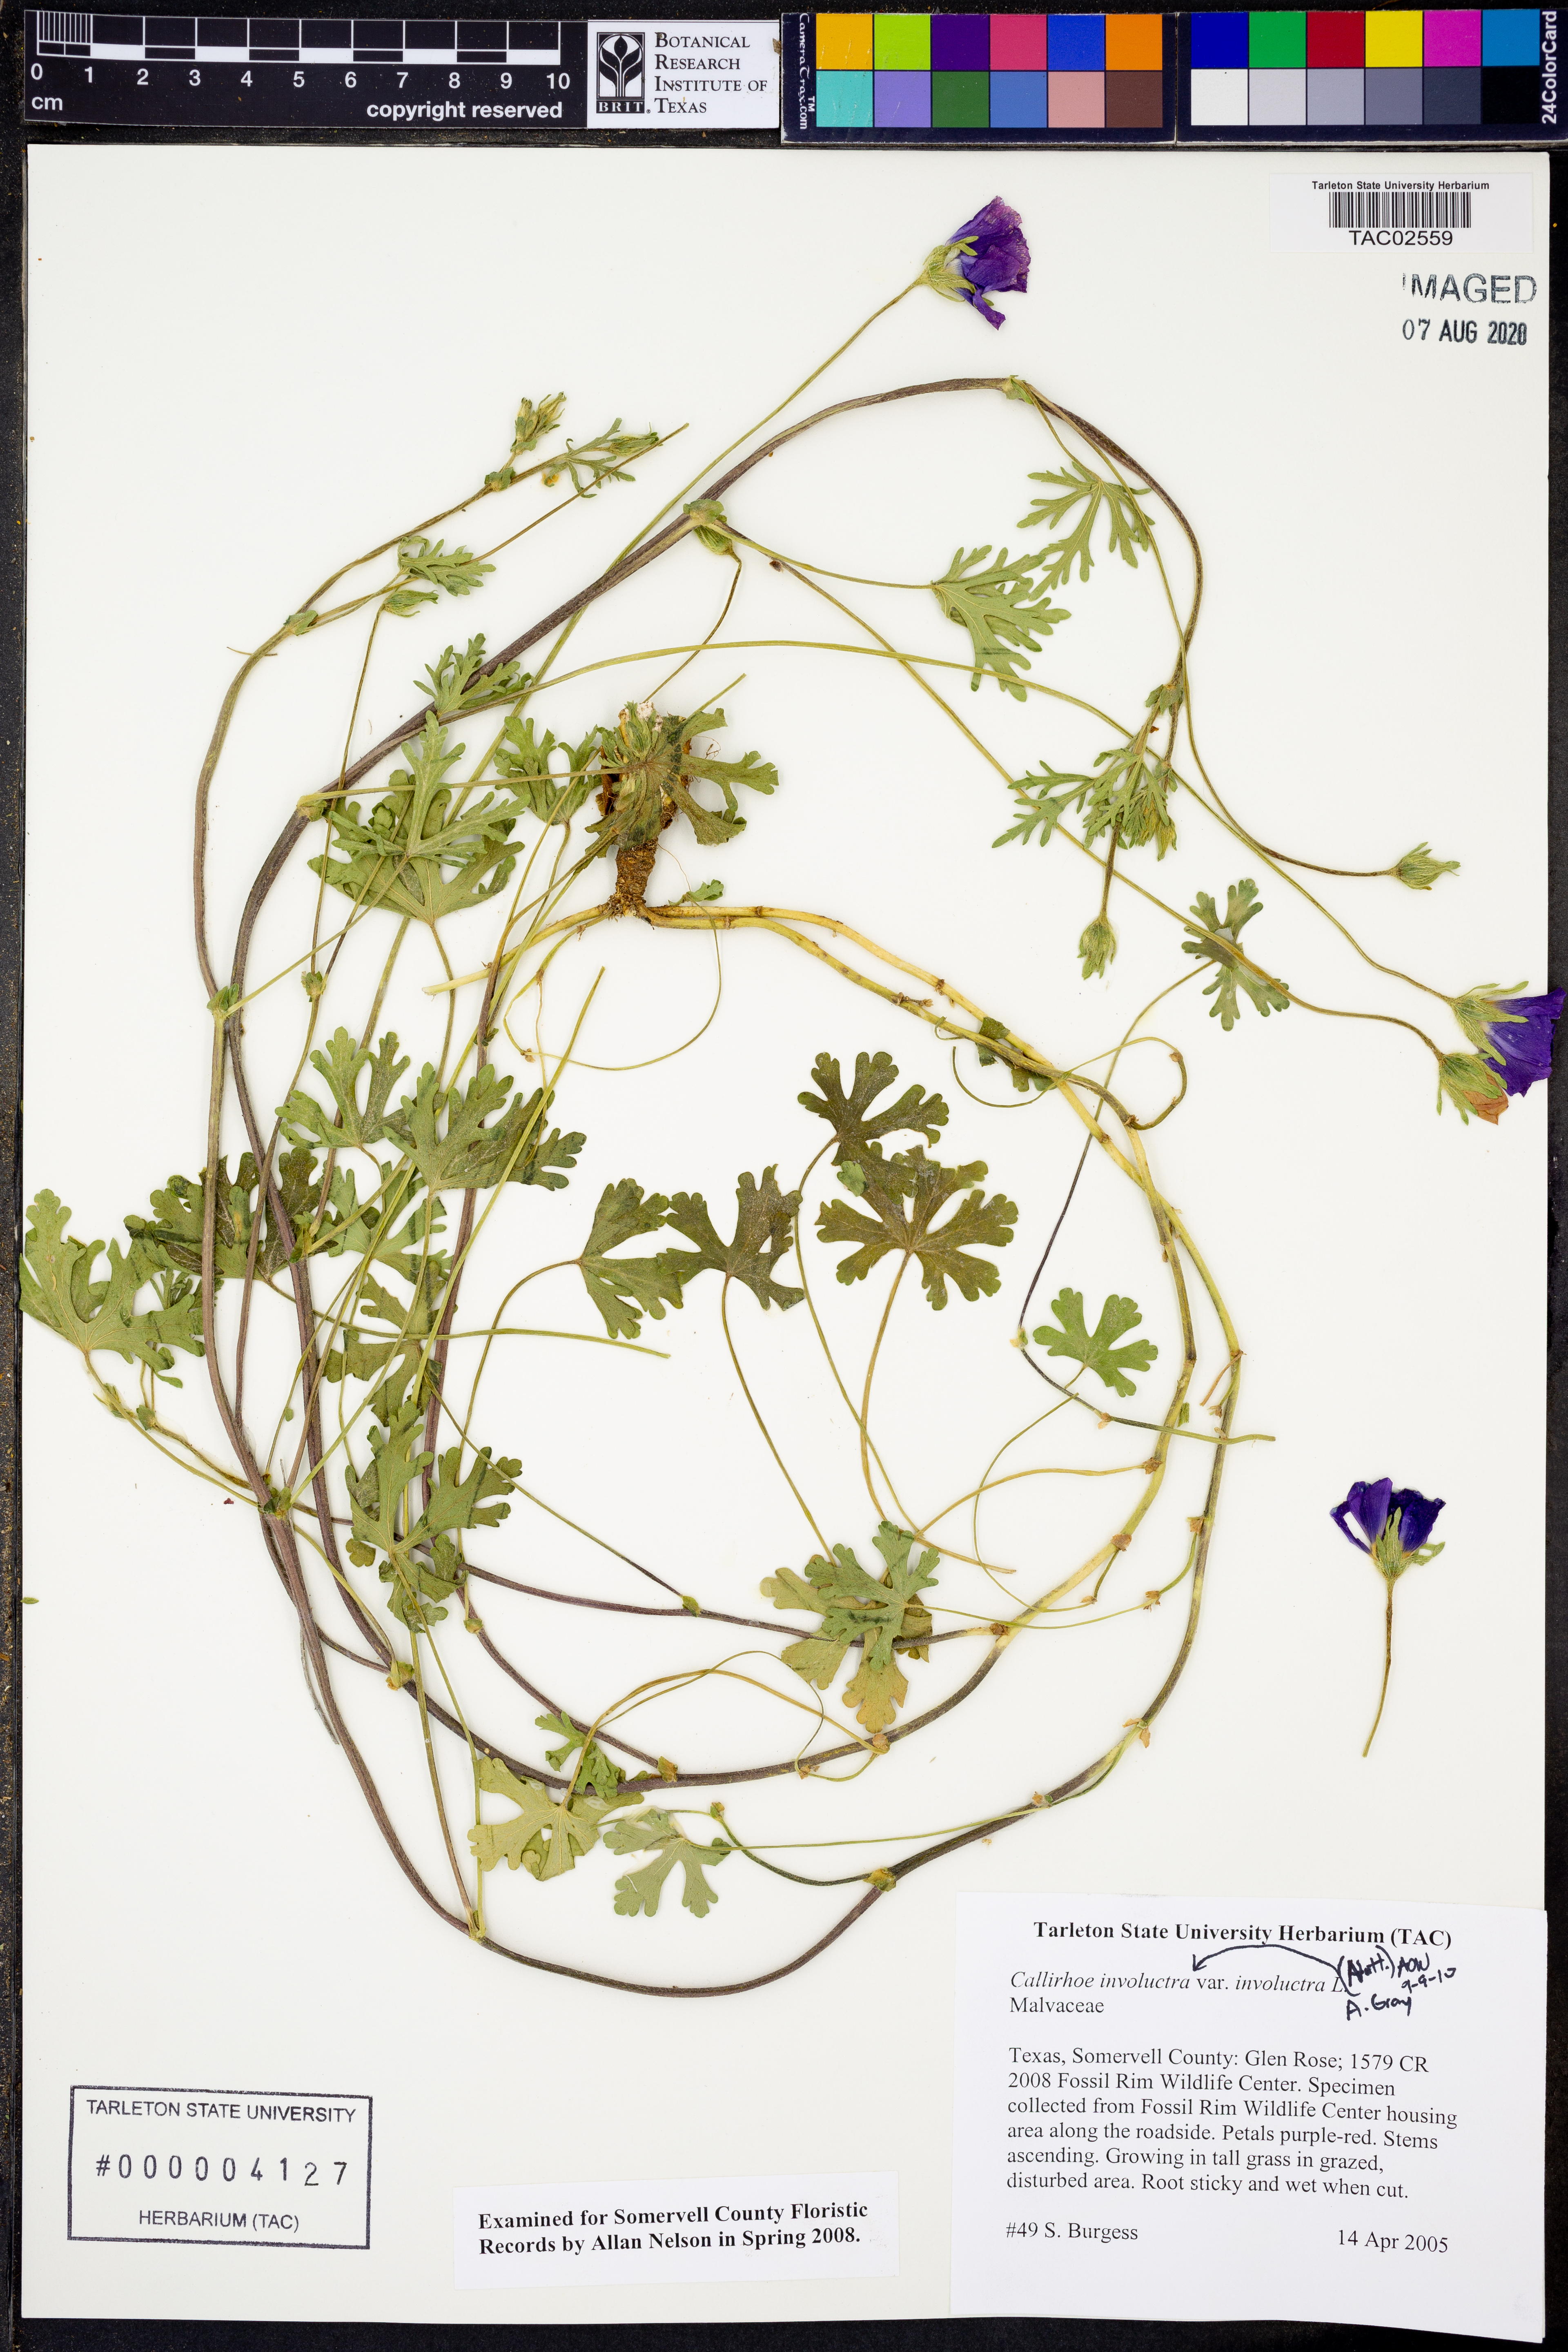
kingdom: Plantae
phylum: Tracheophyta
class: Magnoliopsida
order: Malvales
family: Malvaceae
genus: Callirhoe
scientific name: Callirhoe involucrata
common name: Purple poppy-mallow
